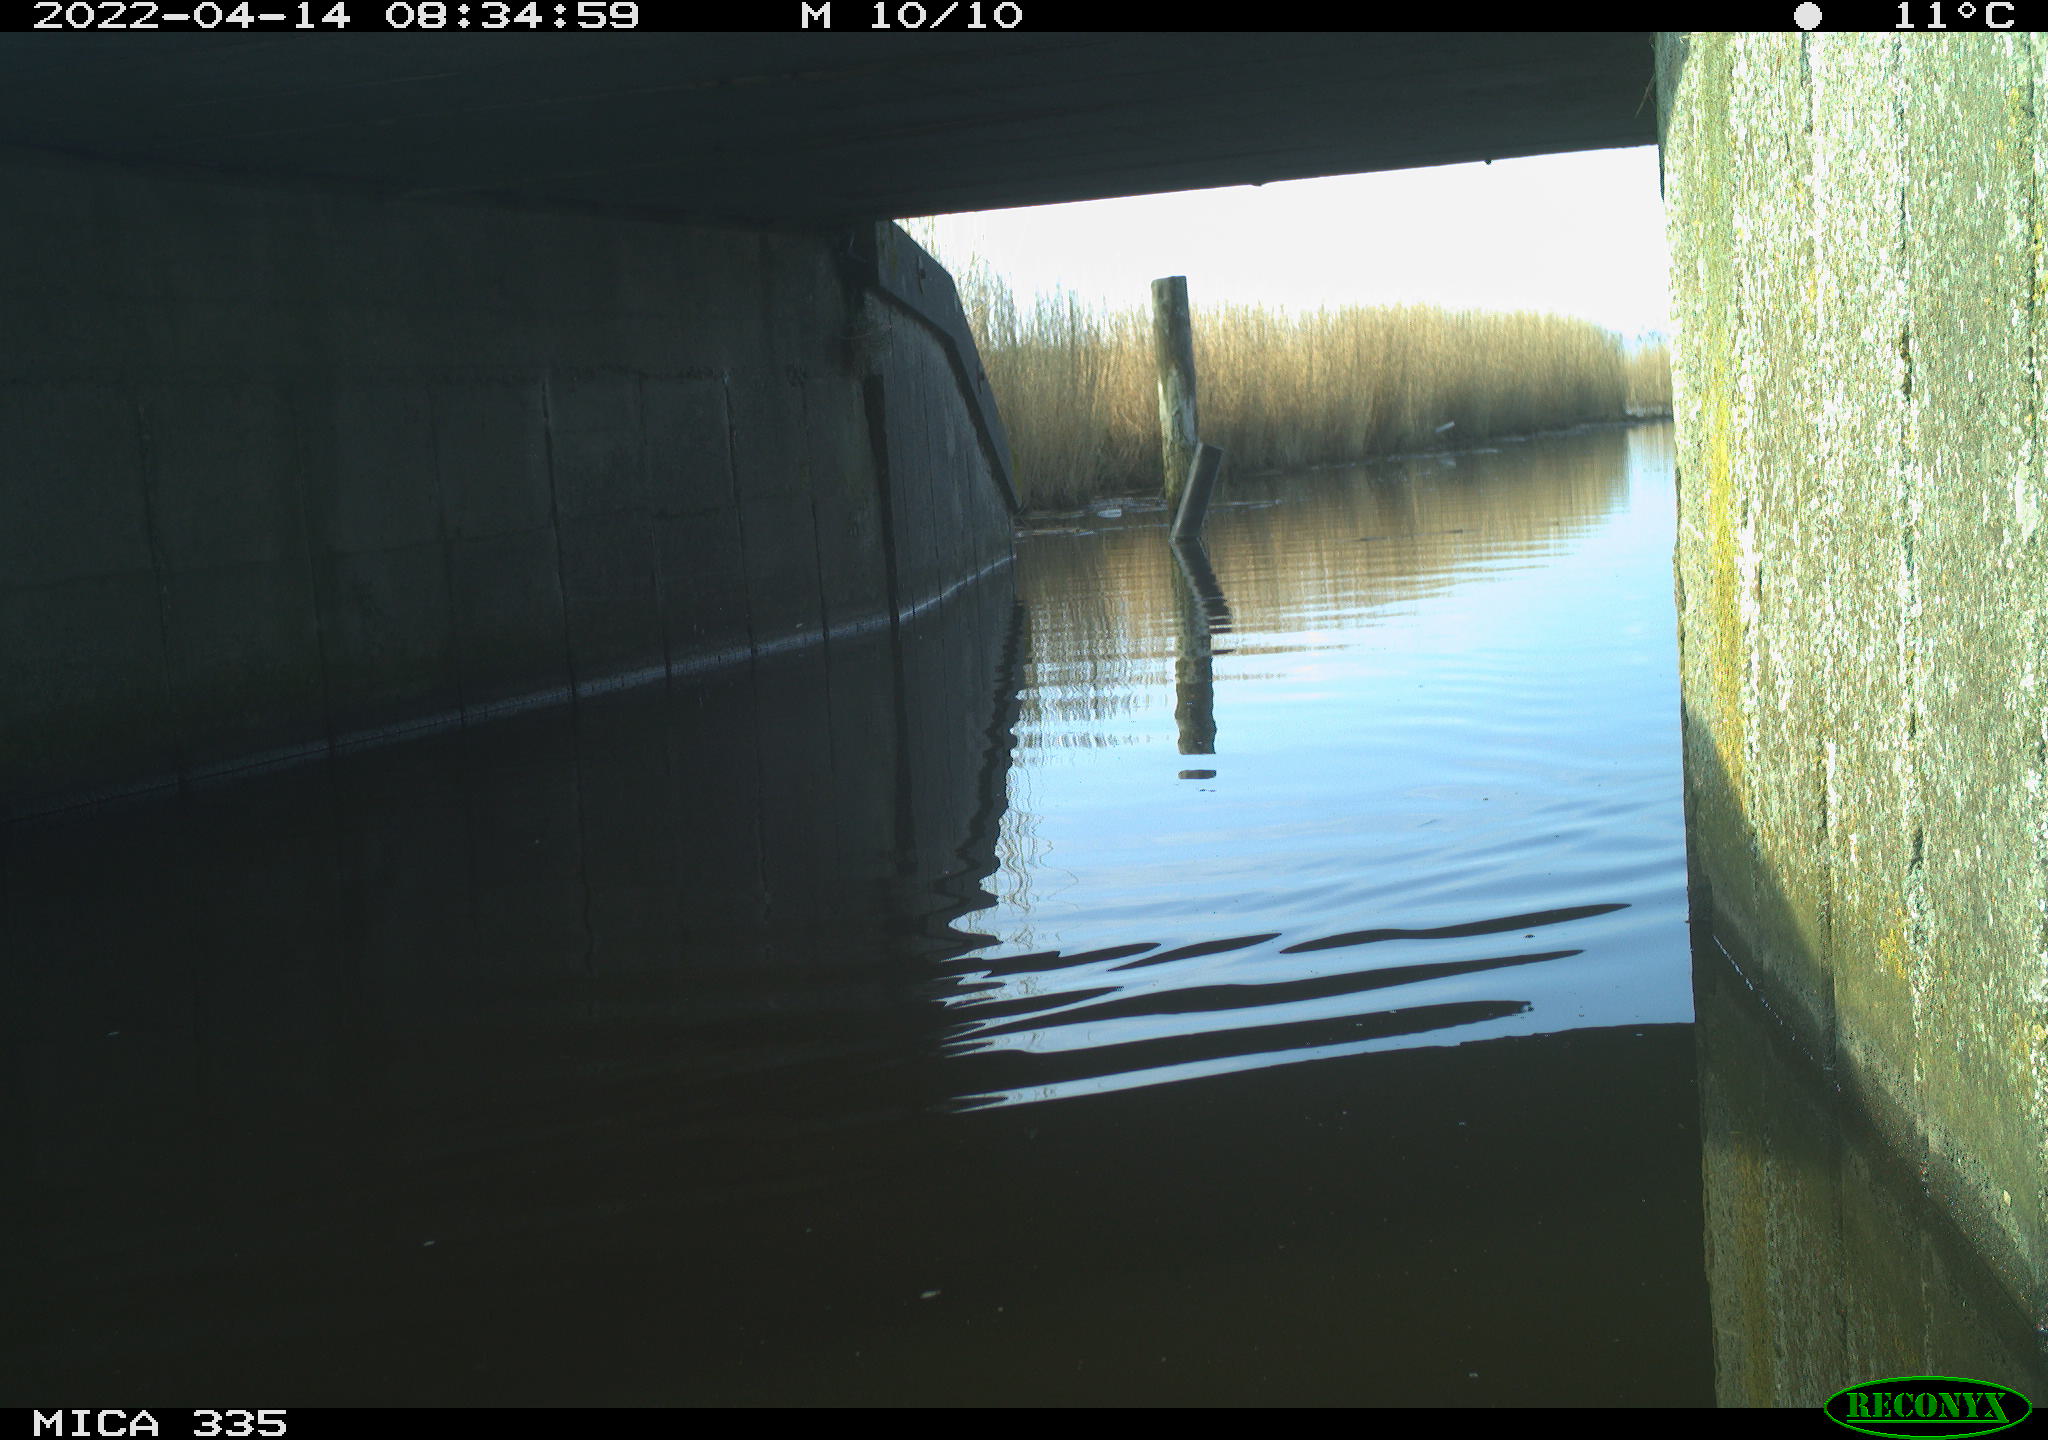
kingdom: Animalia
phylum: Chordata
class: Aves
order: Anseriformes
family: Anatidae
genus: Anas
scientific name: Anas platyrhynchos
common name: Mallard
